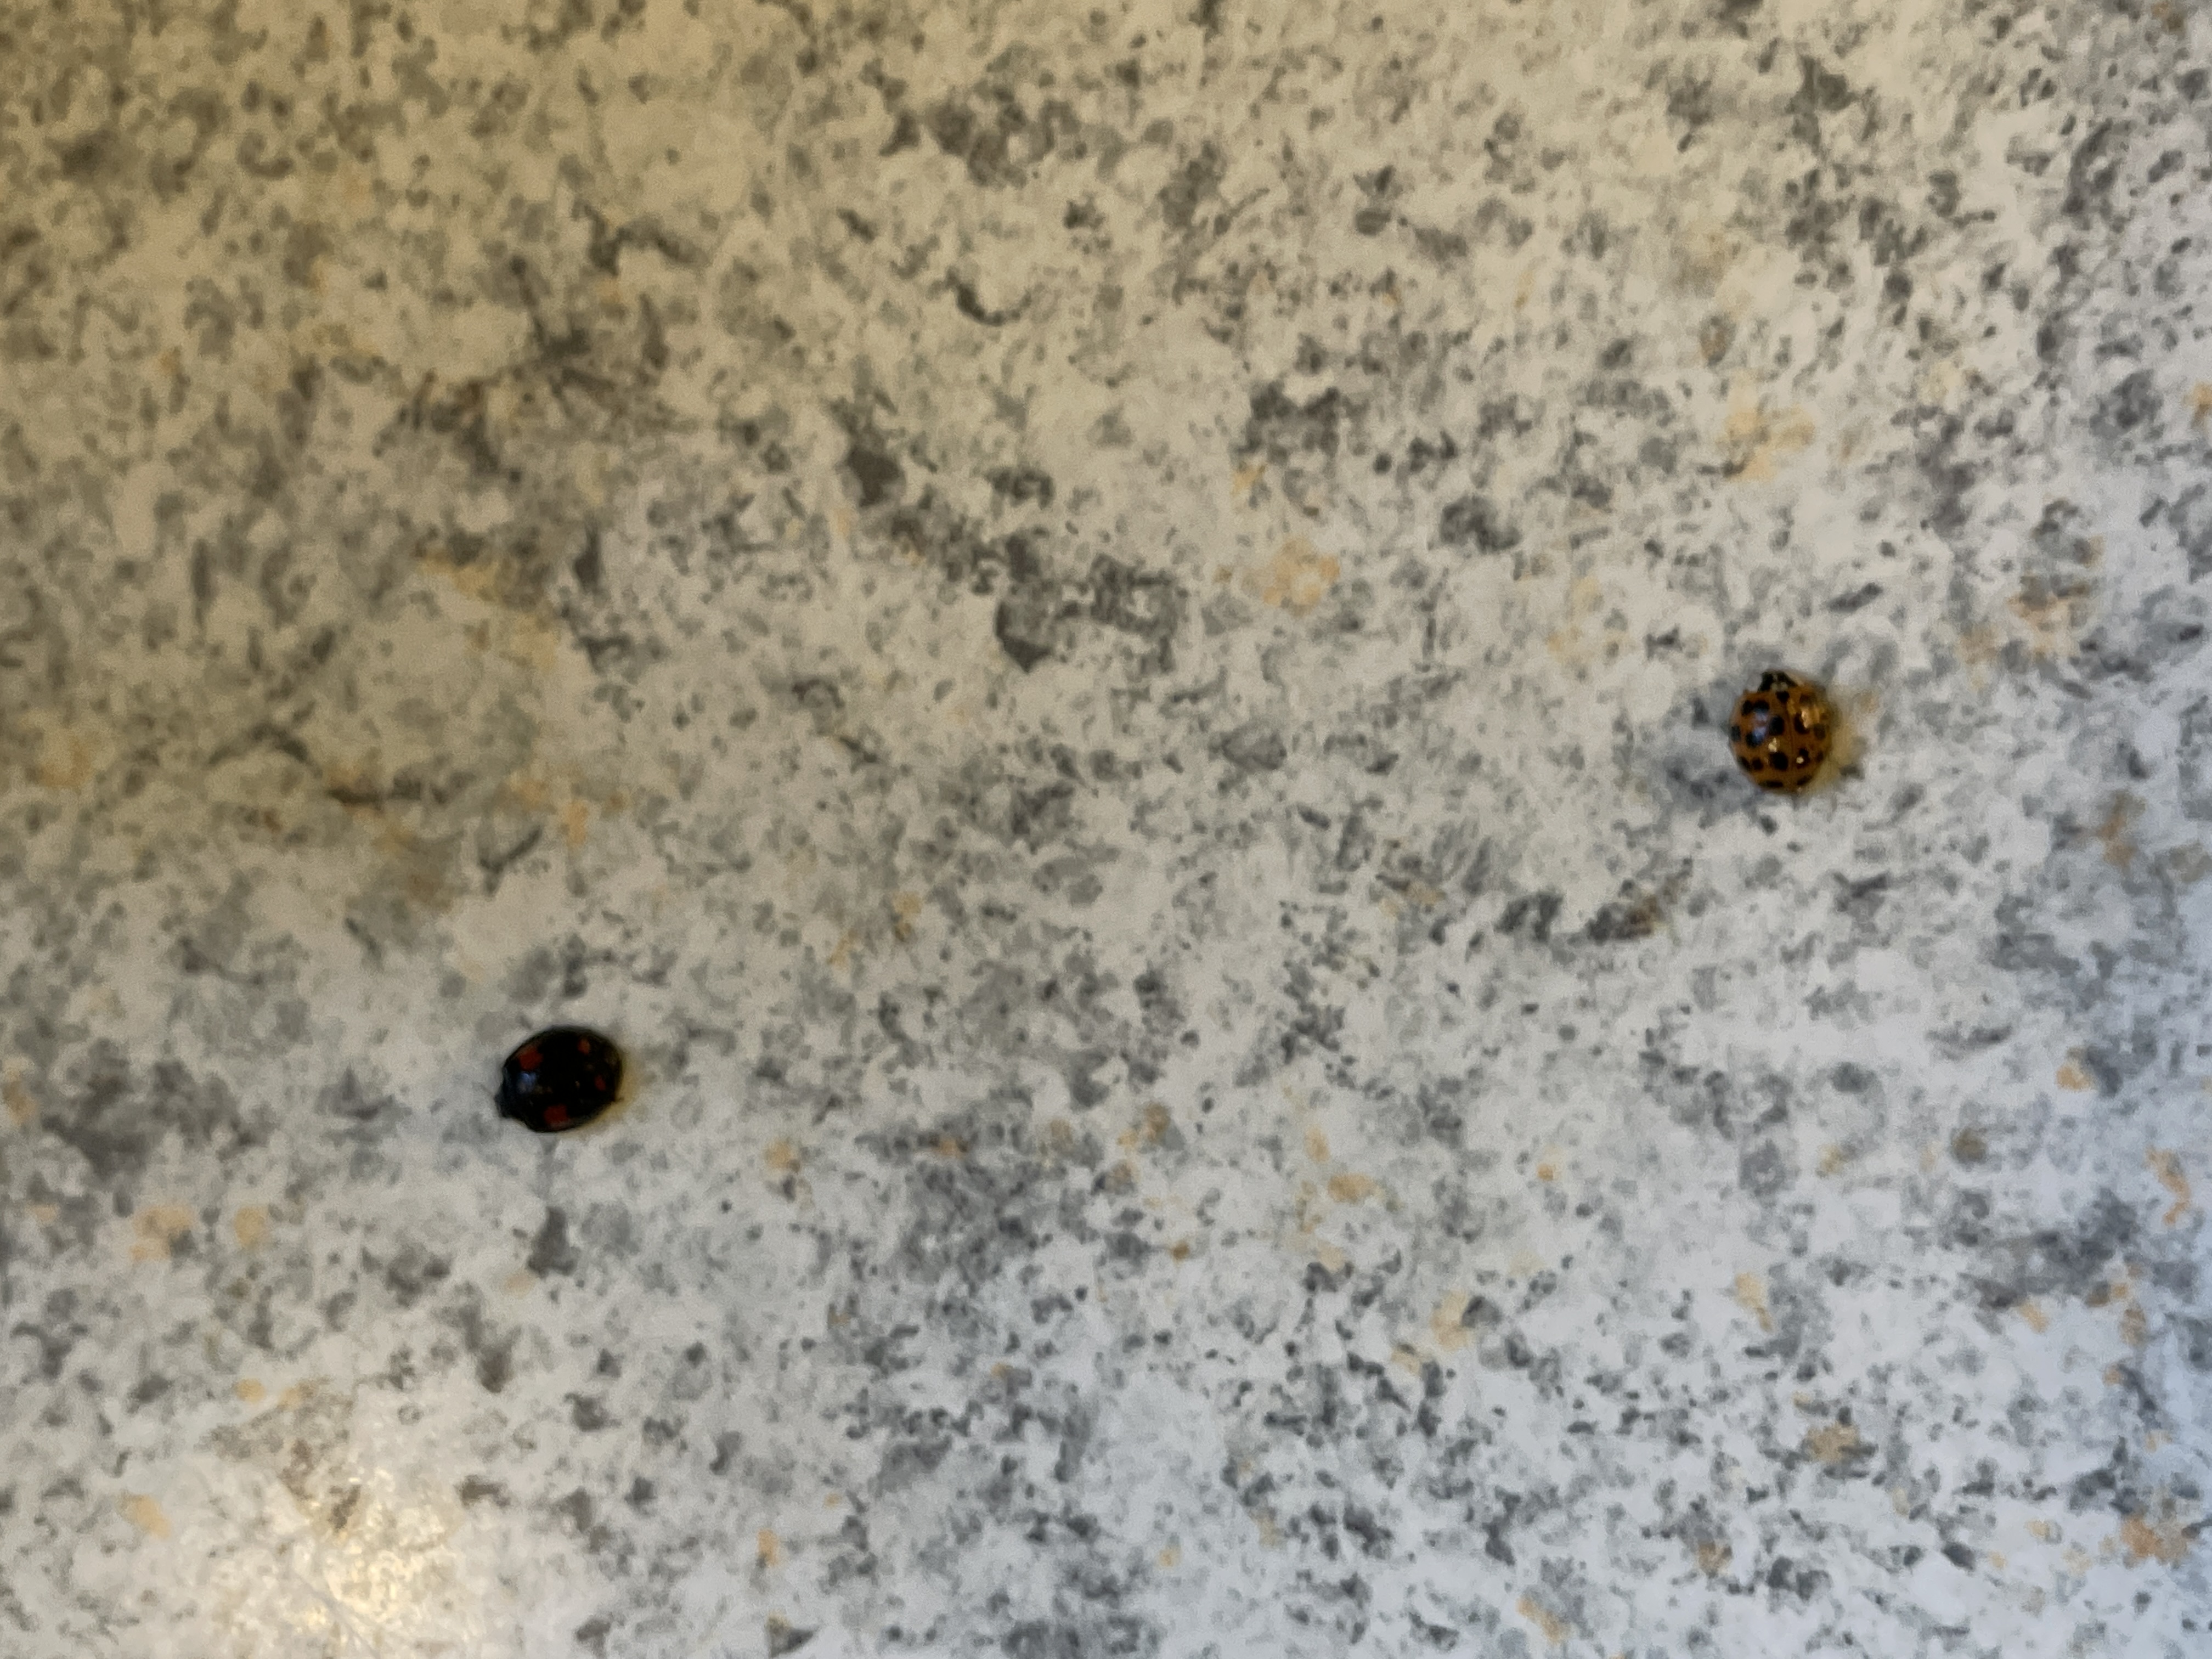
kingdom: Animalia
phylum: Arthropoda
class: Insecta
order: Coleoptera
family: Coccinellidae
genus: Harmonia
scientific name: Harmonia axyridis
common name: Harlekinmariehøne
